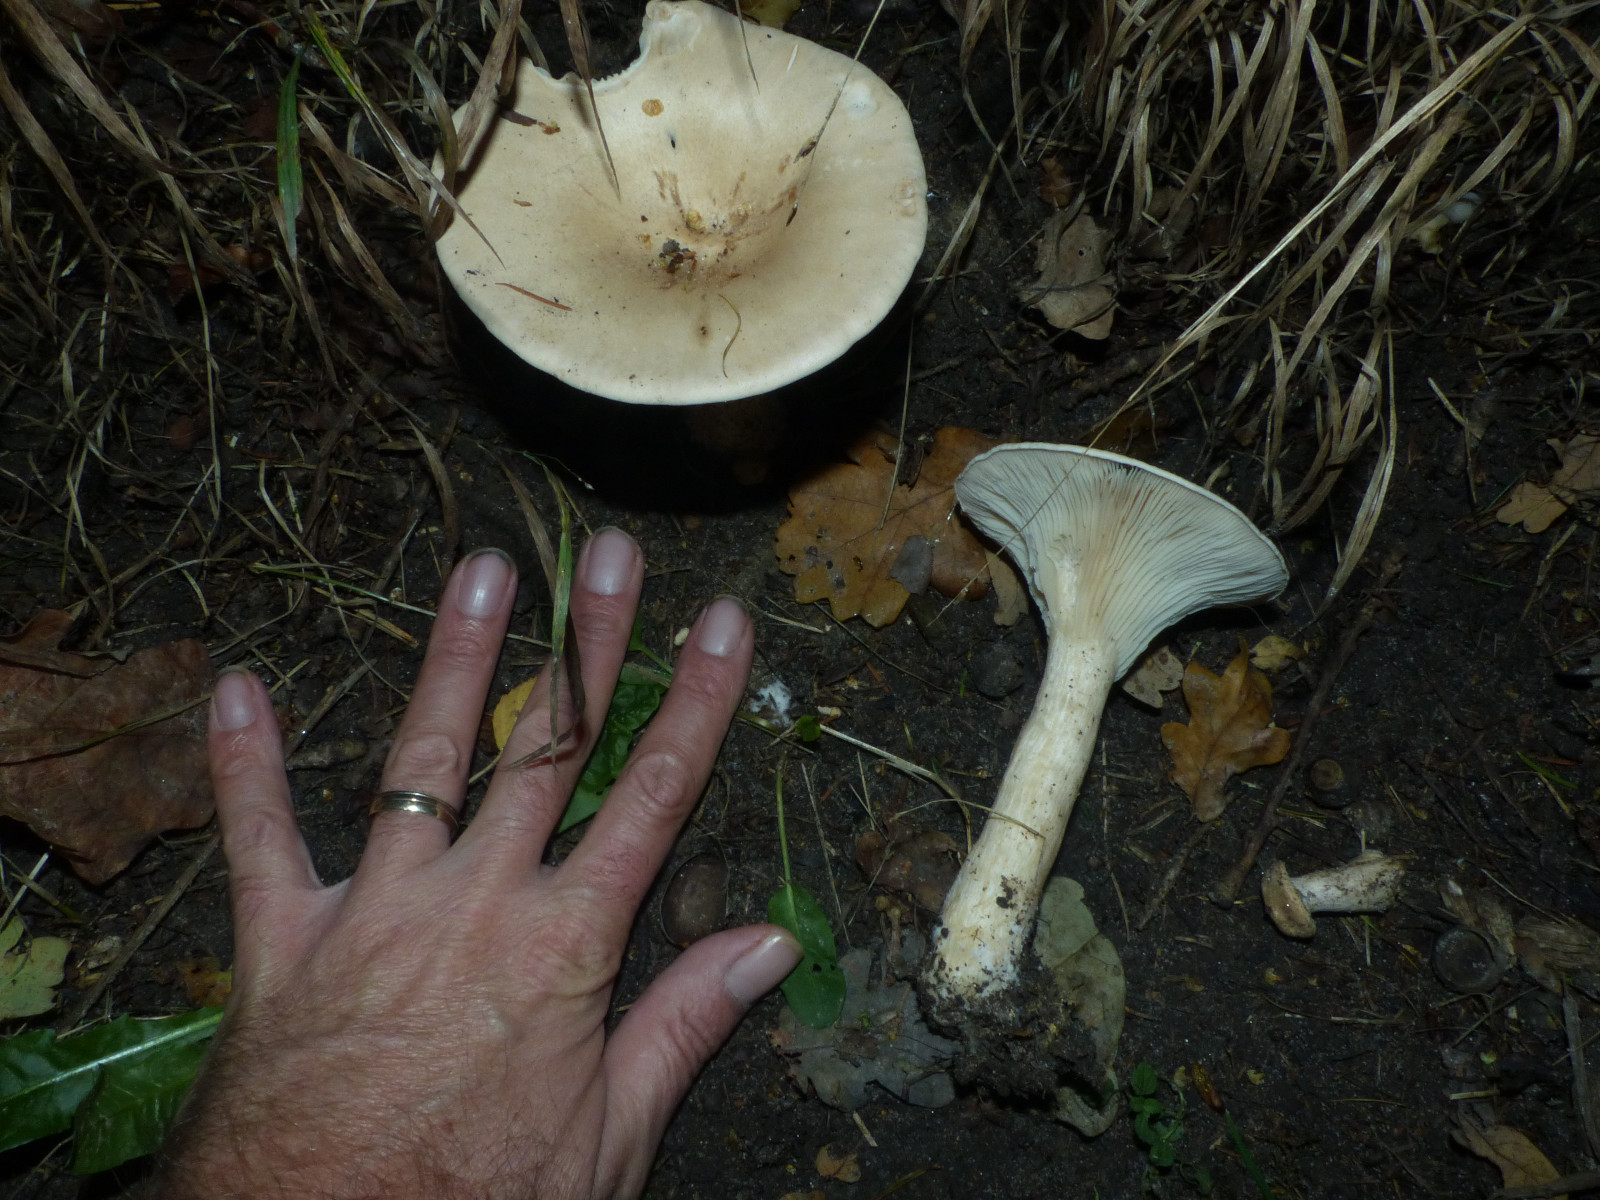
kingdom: Fungi
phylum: Basidiomycota
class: Agaricomycetes
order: Agaricales
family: Tricholomataceae
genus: Infundibulicybe
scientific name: Infundibulicybe geotropa
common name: stor tragthat
